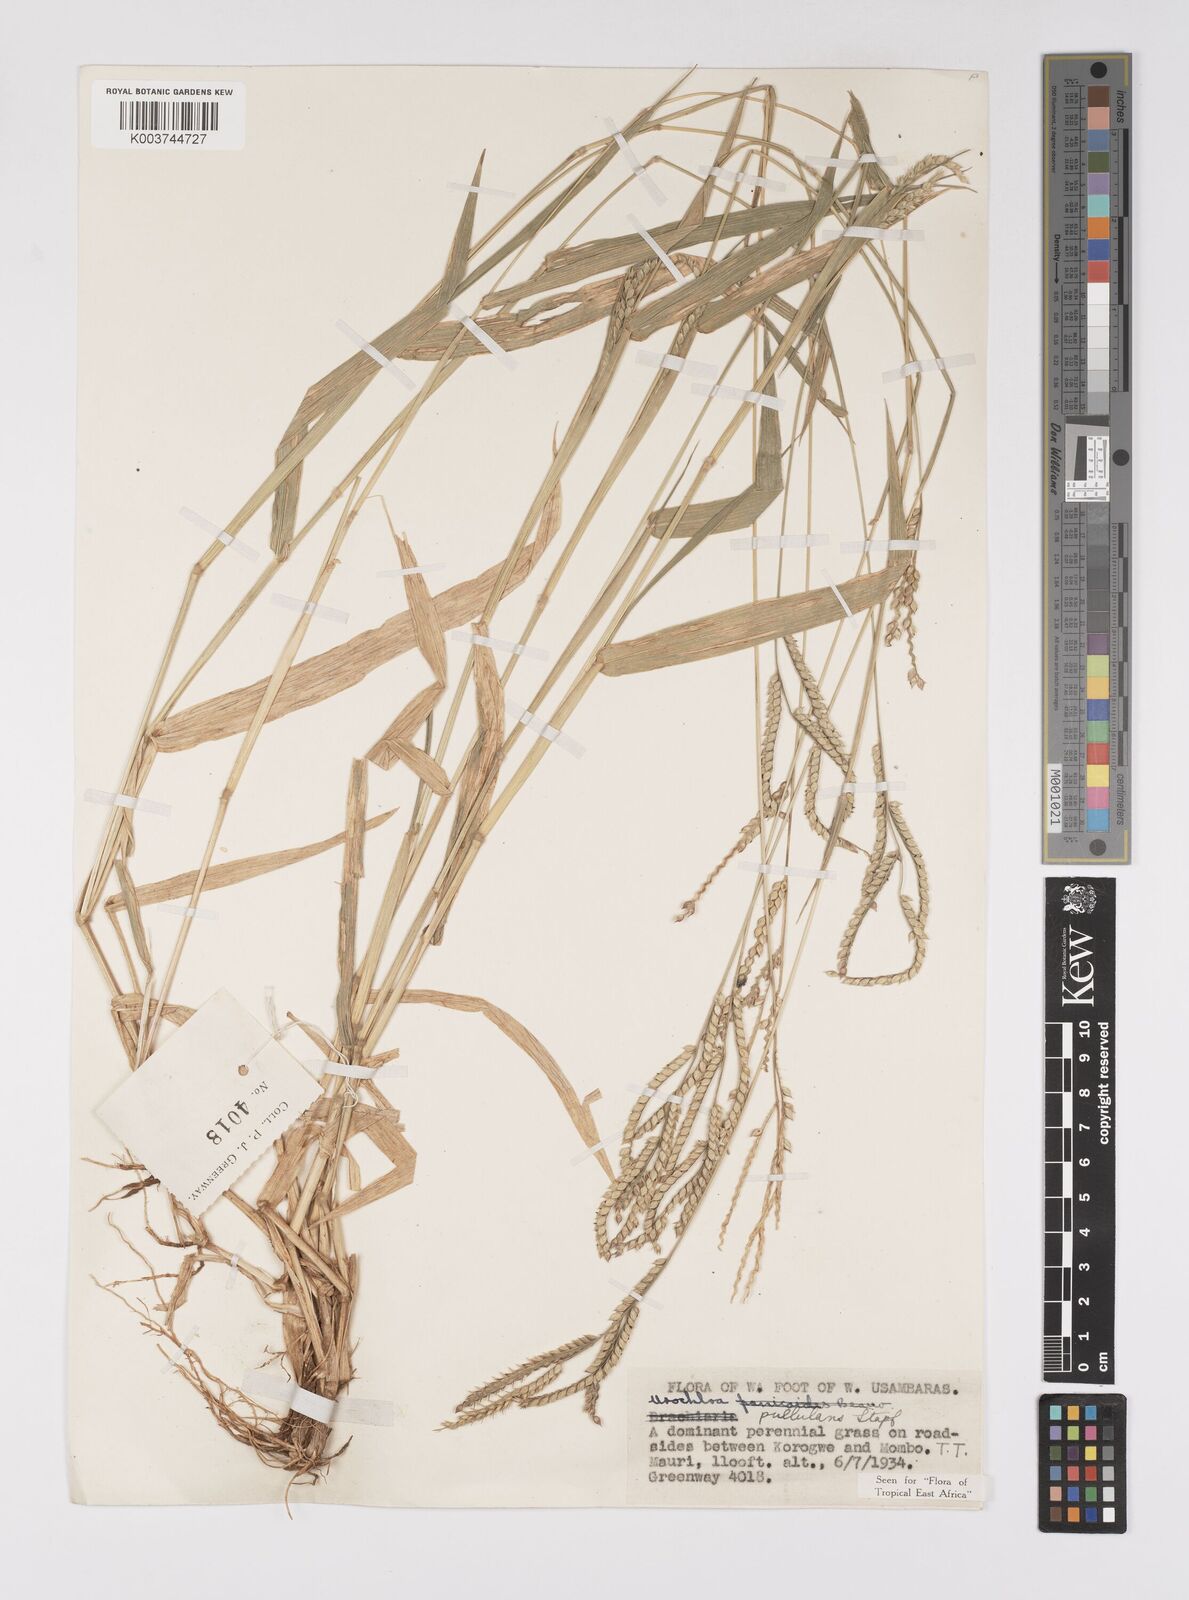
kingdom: Plantae
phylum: Tracheophyta
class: Liliopsida
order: Poales
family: Poaceae
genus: Urochloa
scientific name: Urochloa trichopus
